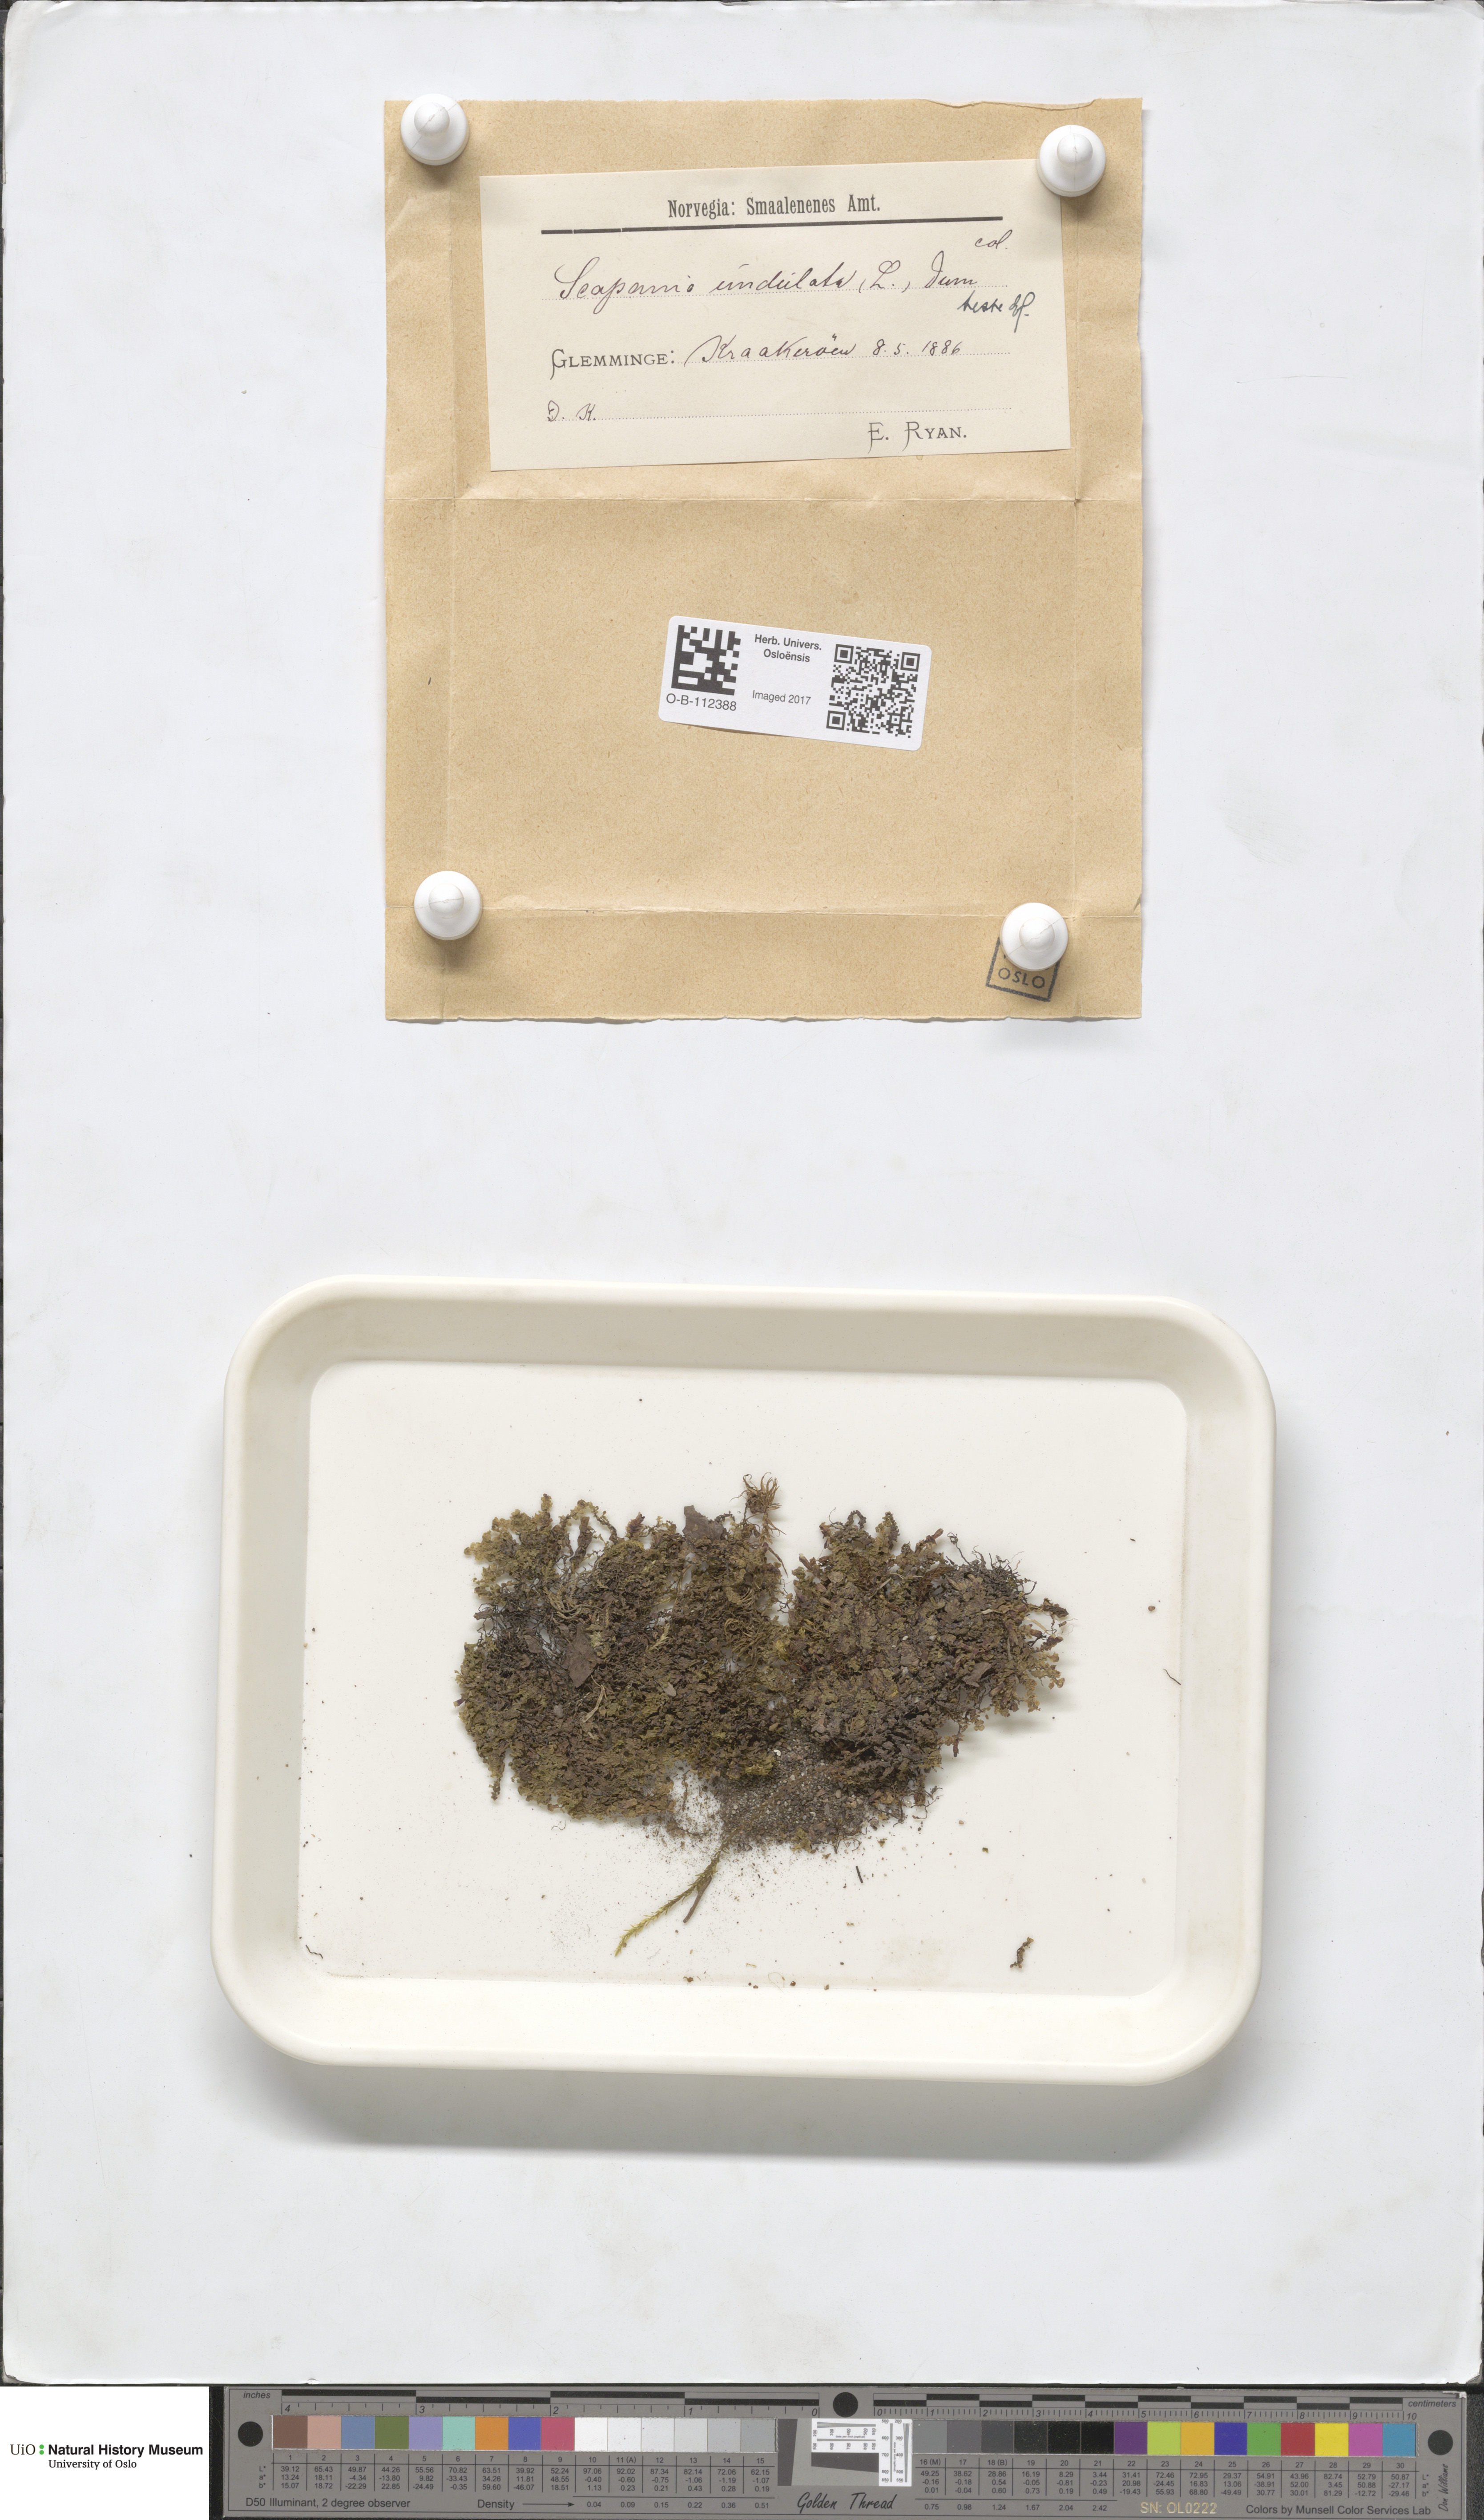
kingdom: Plantae
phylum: Marchantiophyta
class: Jungermanniopsida
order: Jungermanniales
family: Scapaniaceae
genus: Scapania
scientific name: Scapania undulata
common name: Water earwort
